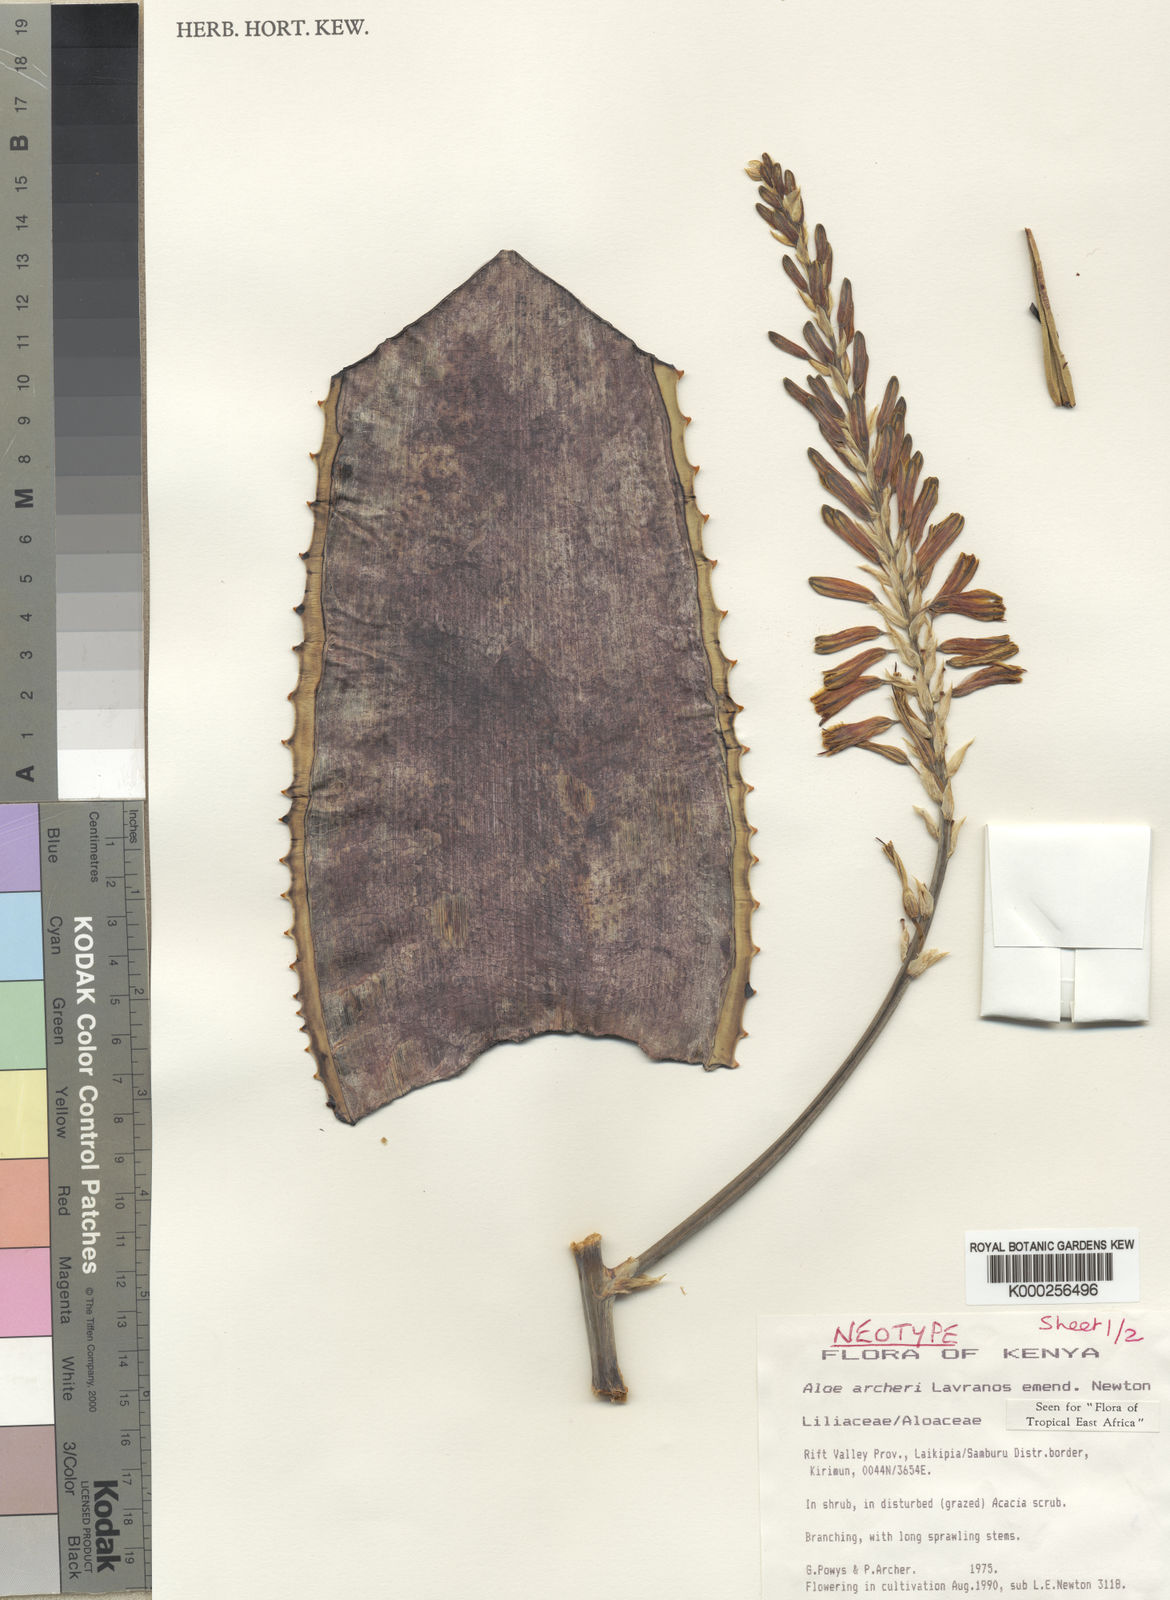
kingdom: Plantae
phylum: Tracheophyta
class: Liliopsida
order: Asparagales
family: Asphodelaceae
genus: Aloe
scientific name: Aloe archeri
